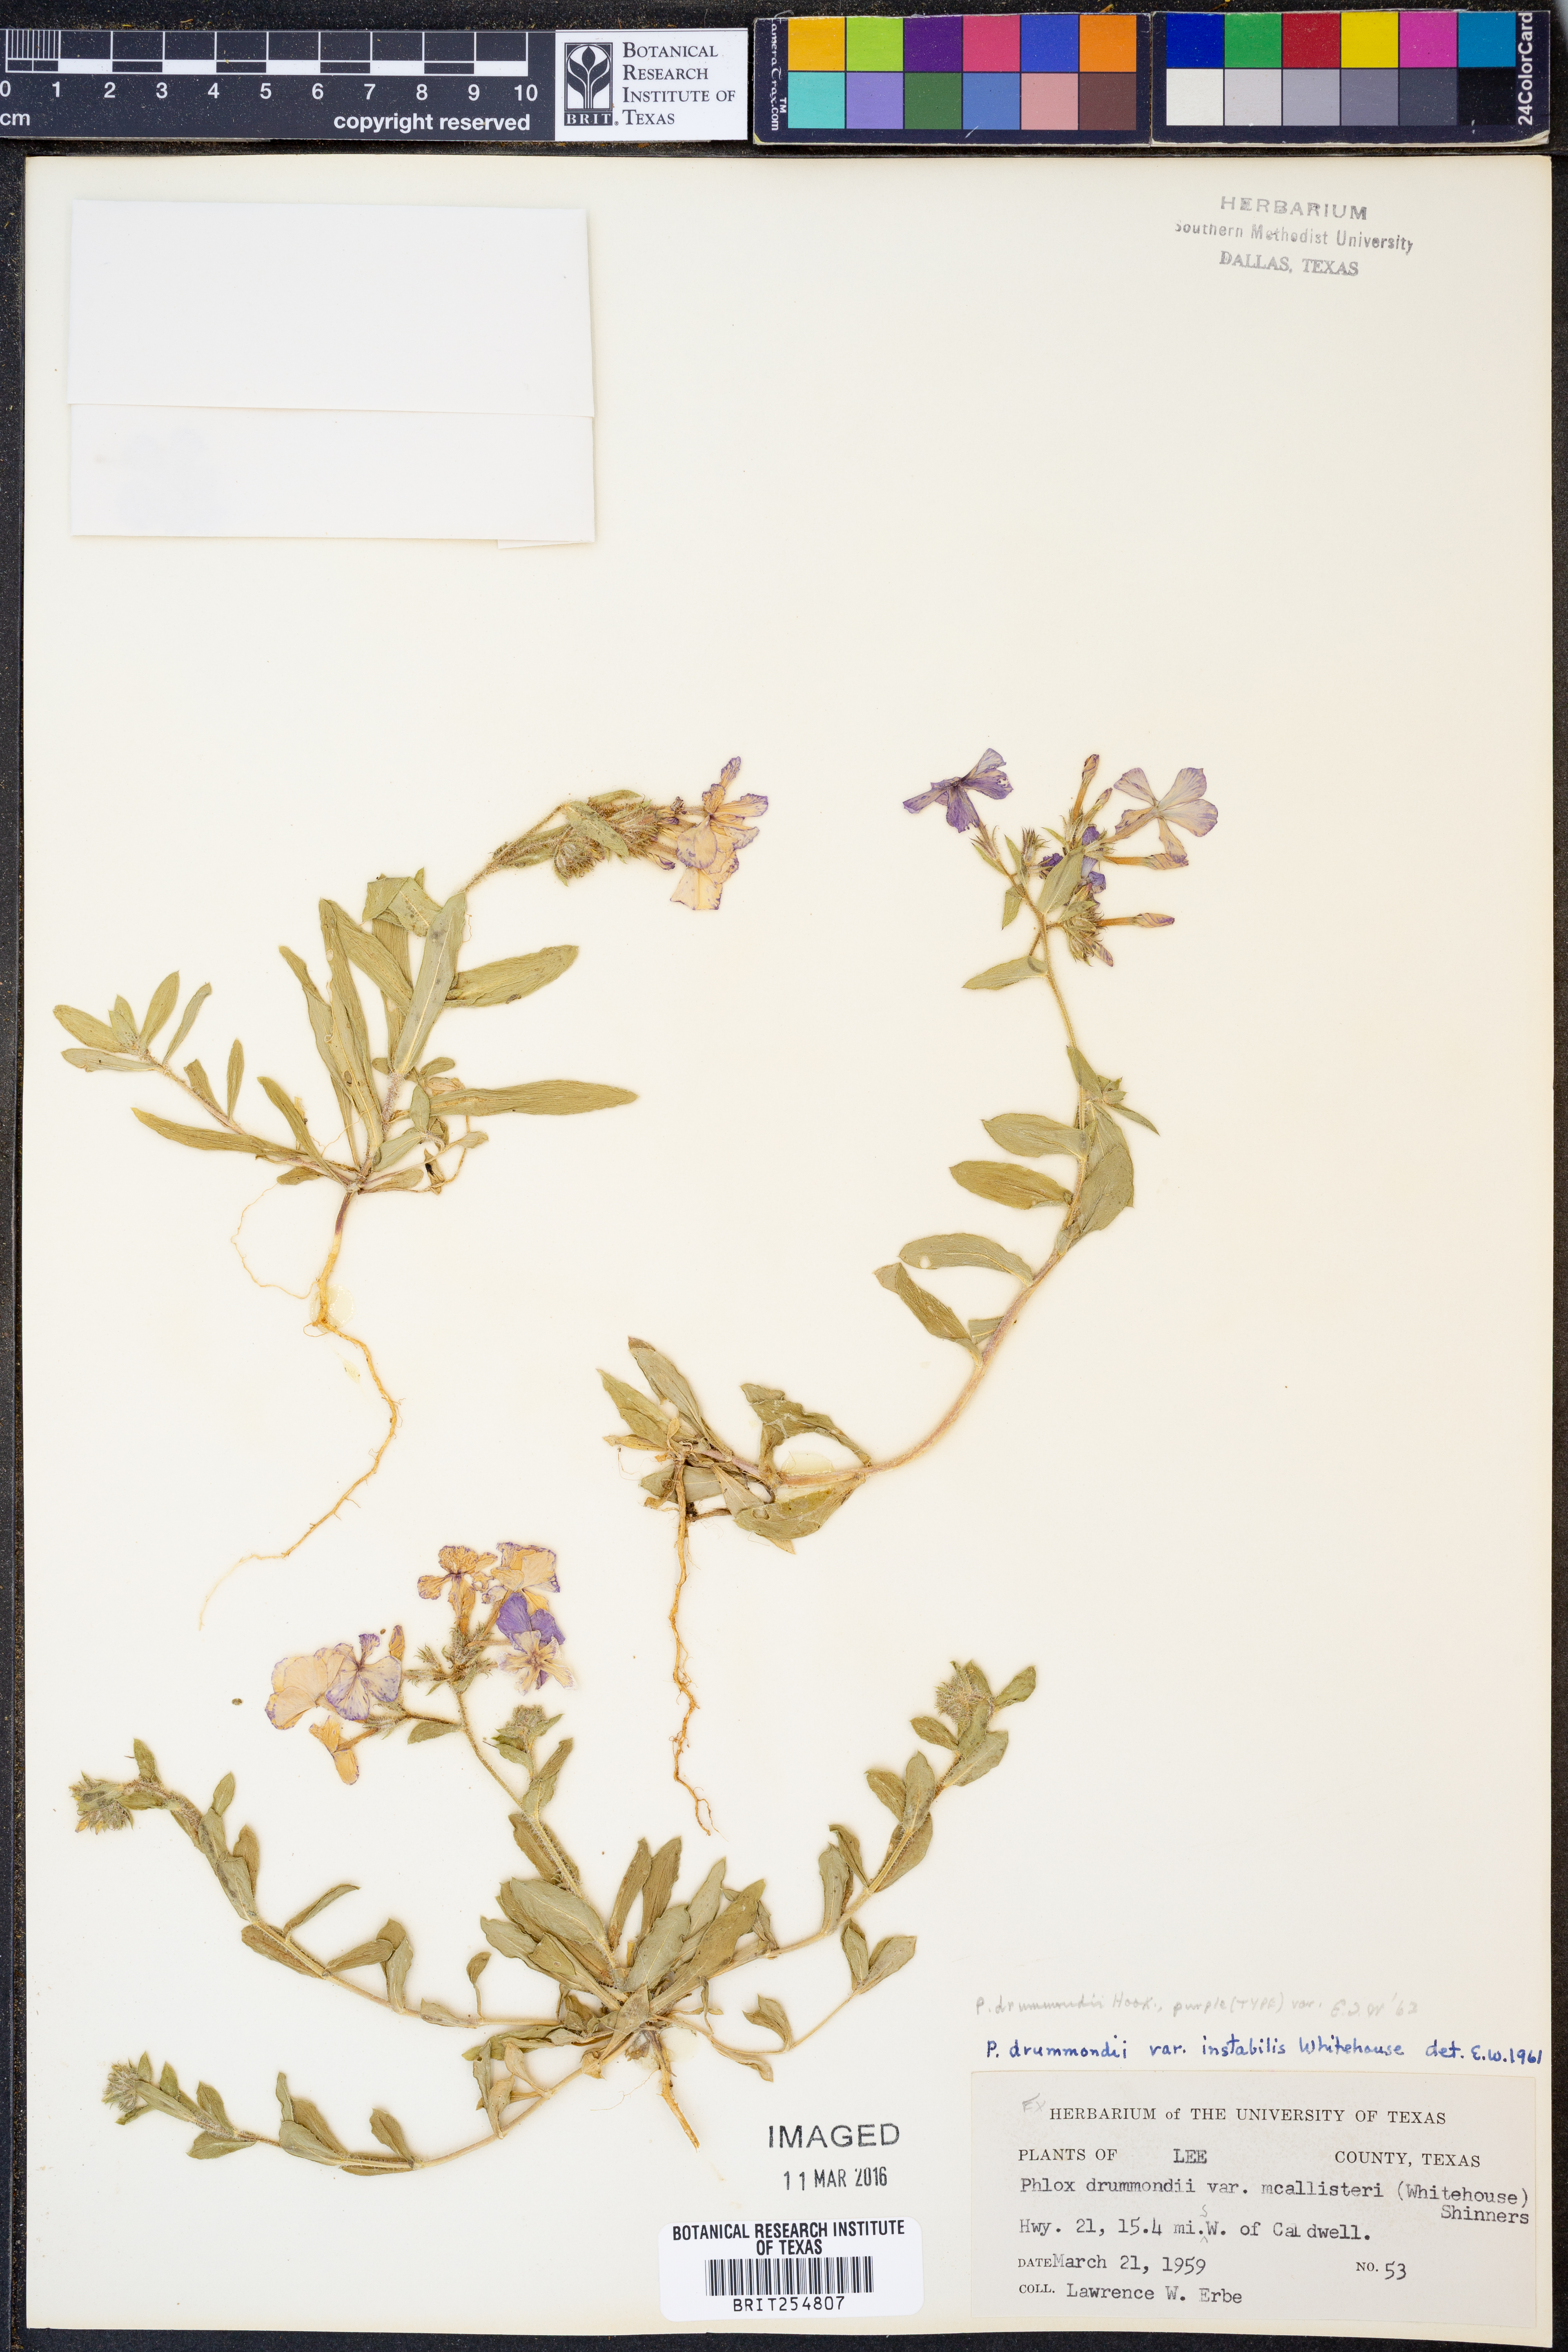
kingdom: Plantae
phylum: Tracheophyta
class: Magnoliopsida
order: Ericales
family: Polemoniaceae
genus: Phlox
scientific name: Phlox drummondii
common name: Drummond's phlox
